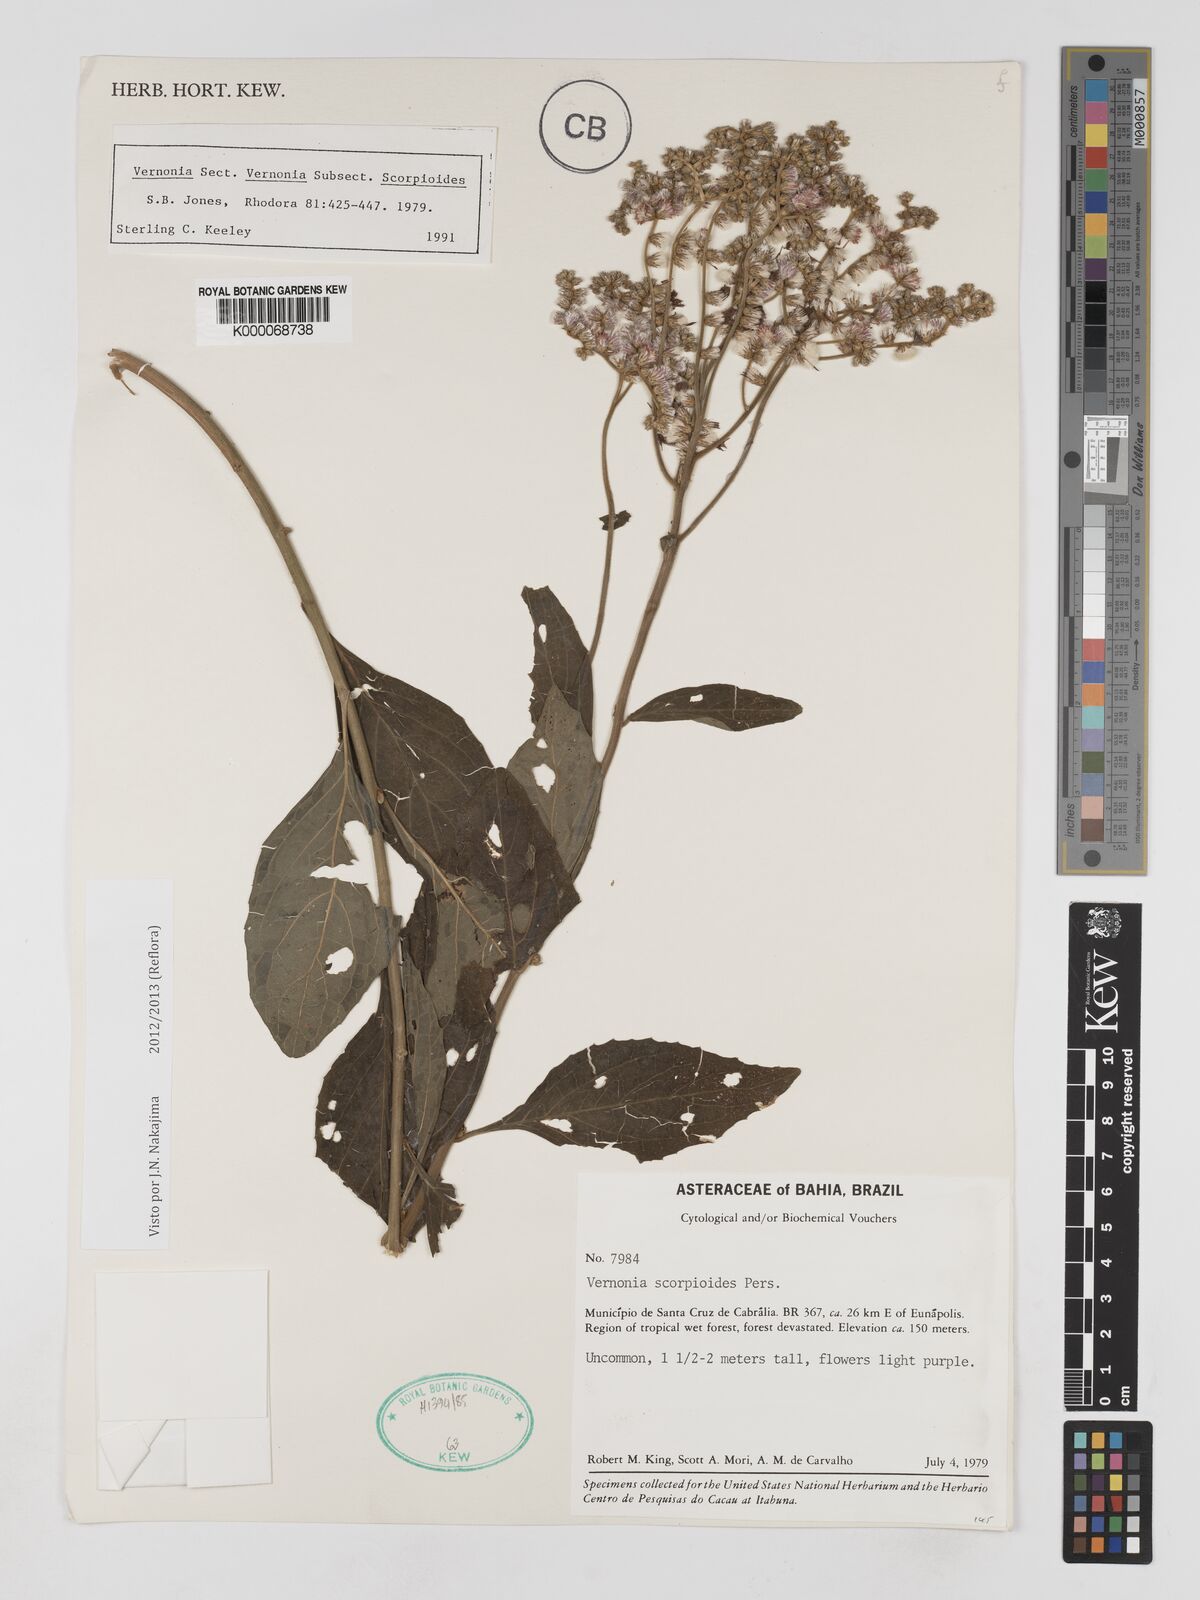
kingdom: Plantae
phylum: Tracheophyta
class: Magnoliopsida
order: Asterales
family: Asteraceae
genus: Cyrtocymura
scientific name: Cyrtocymura scorpioides
